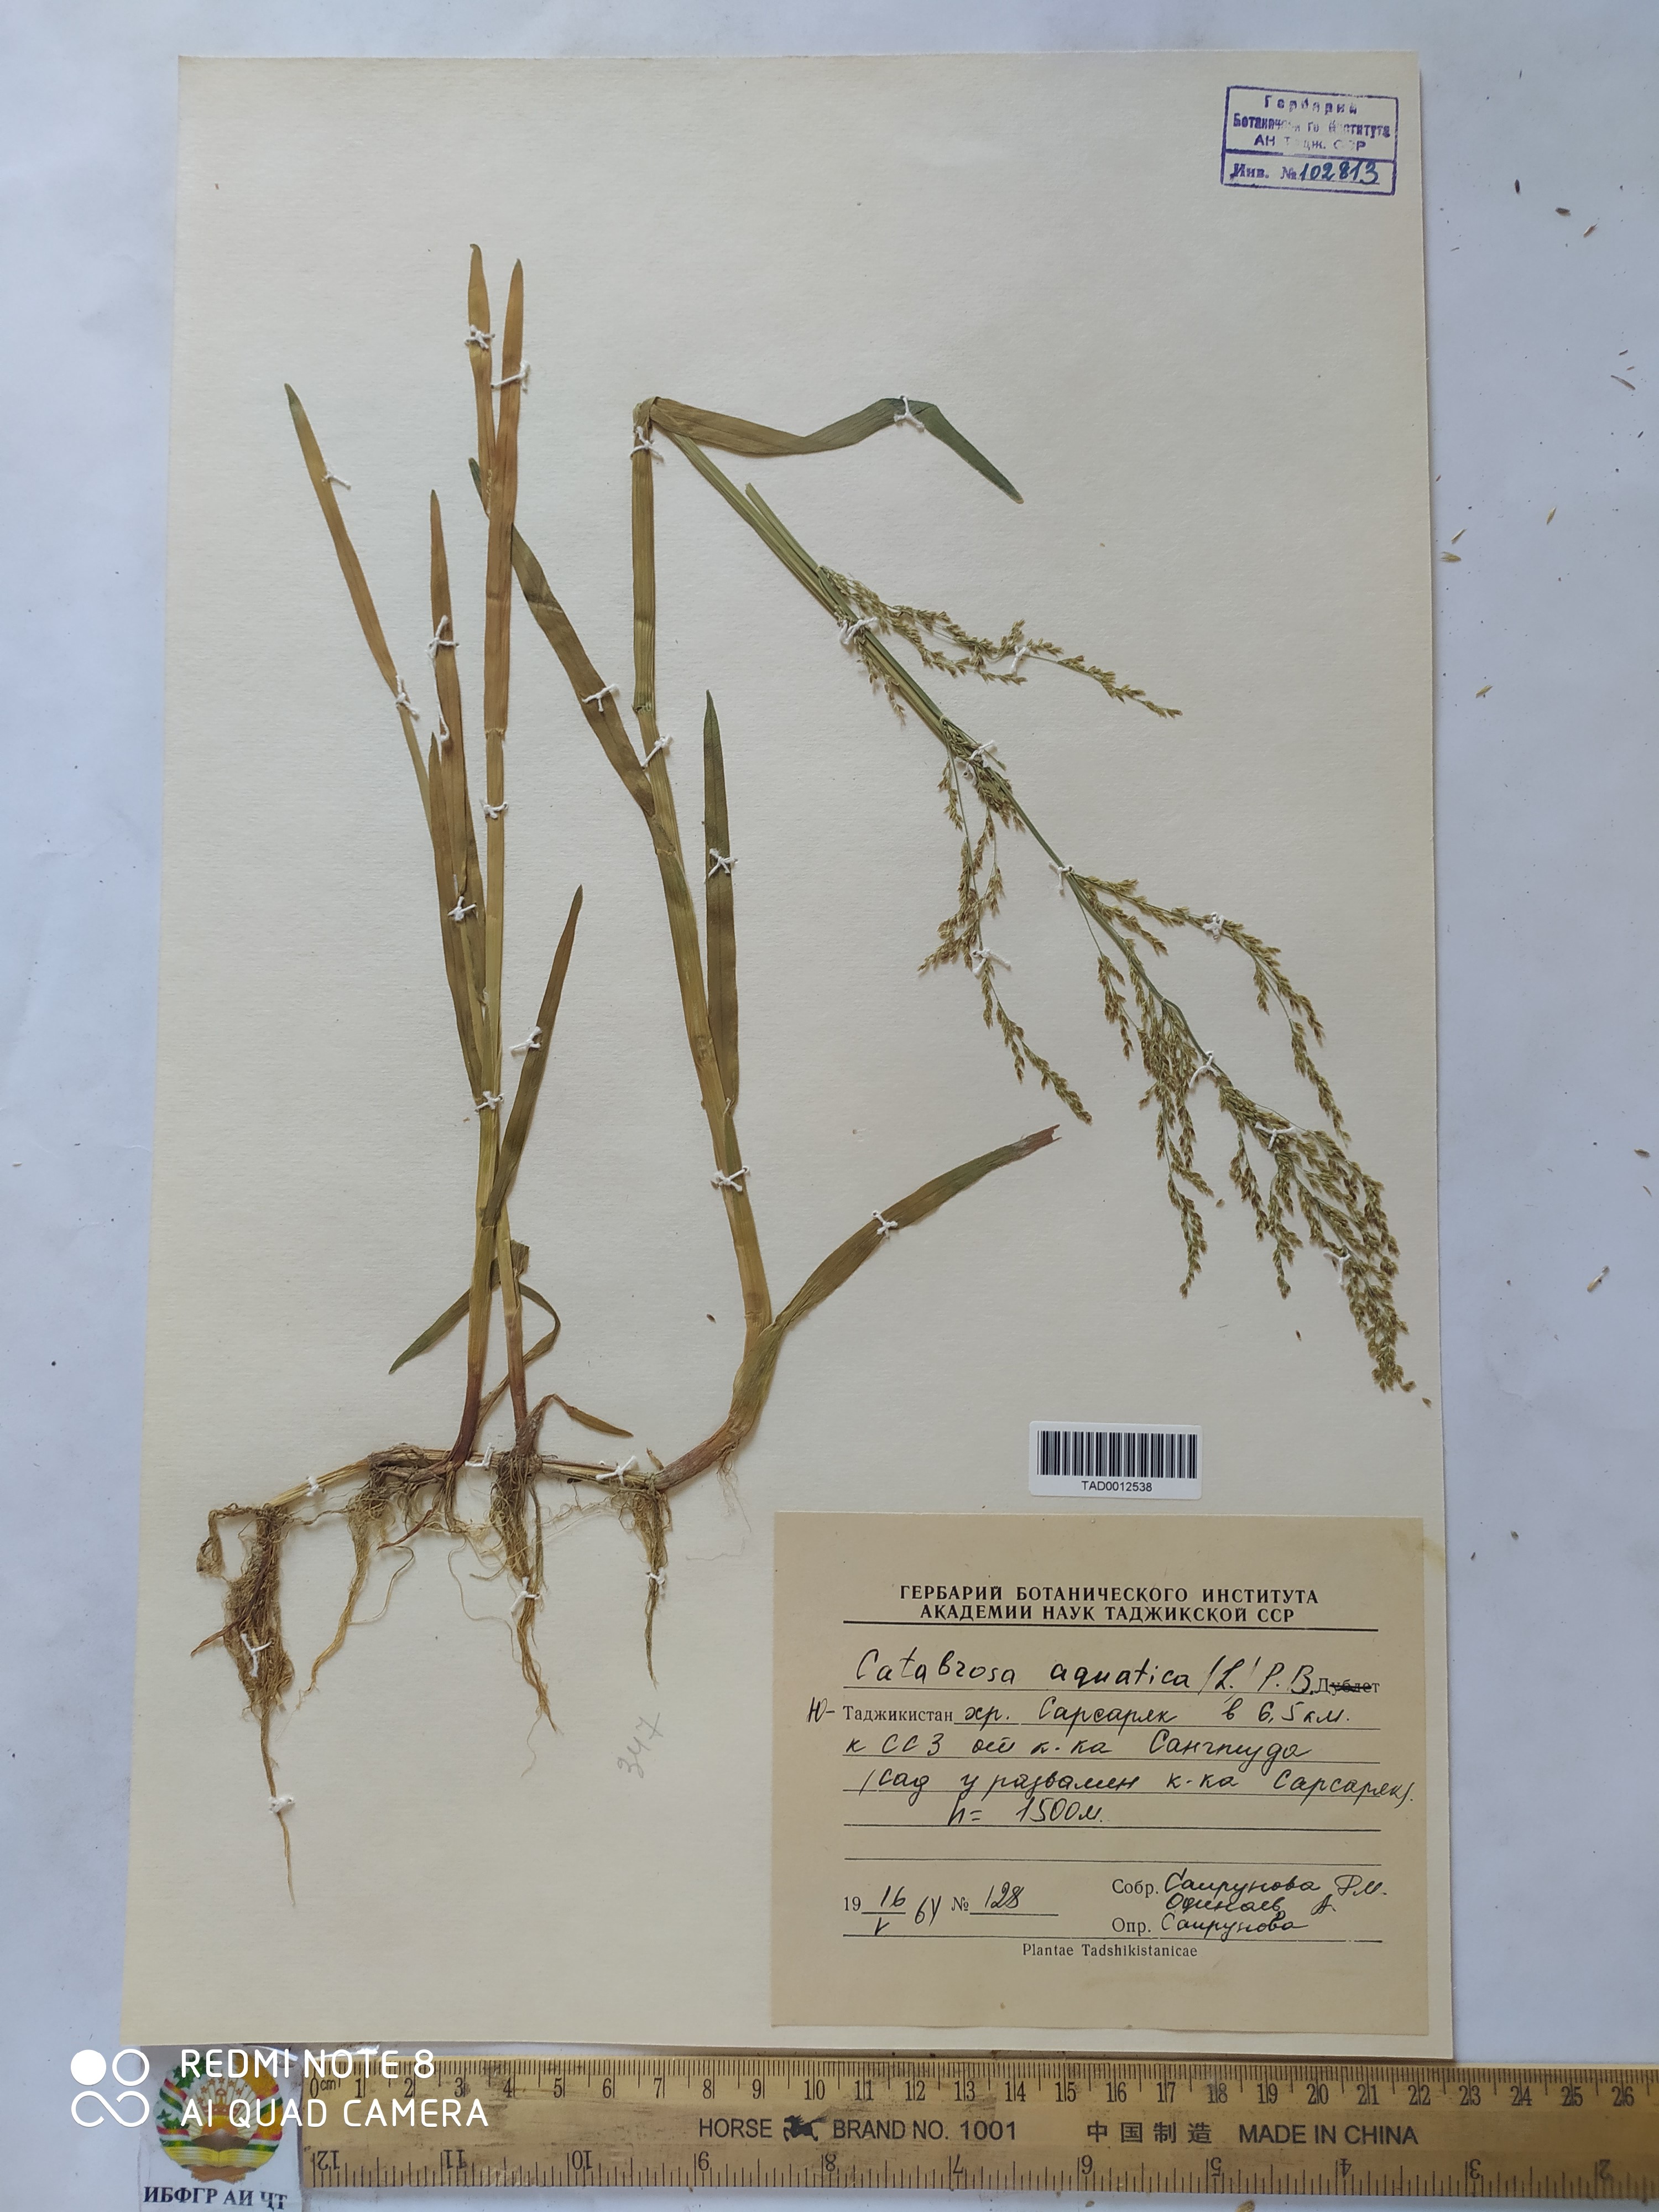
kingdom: Plantae
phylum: Tracheophyta
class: Liliopsida
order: Poales
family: Poaceae
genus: Catabrosa
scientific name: Catabrosa aquatica
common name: Whorl-grass
